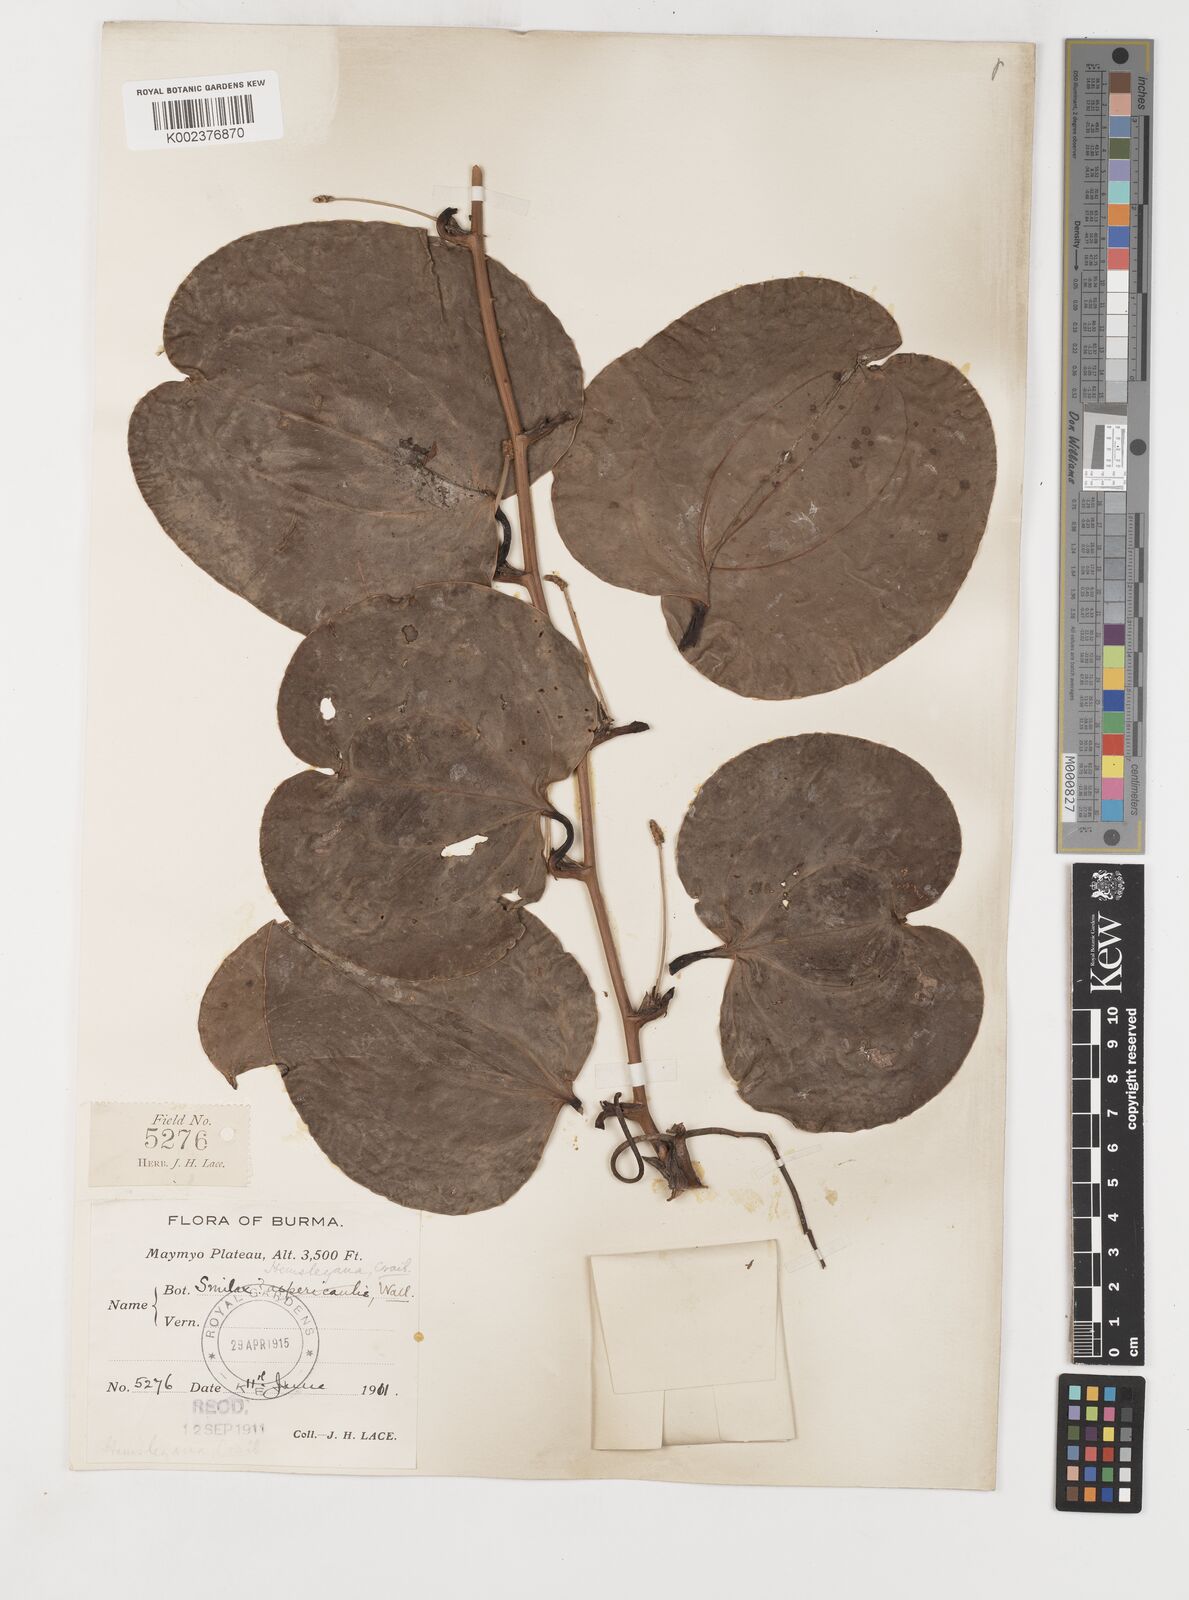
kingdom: Plantae
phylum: Tracheophyta
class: Liliopsida
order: Liliales
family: Smilacaceae
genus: Smilax
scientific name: Smilax hemsleyana
